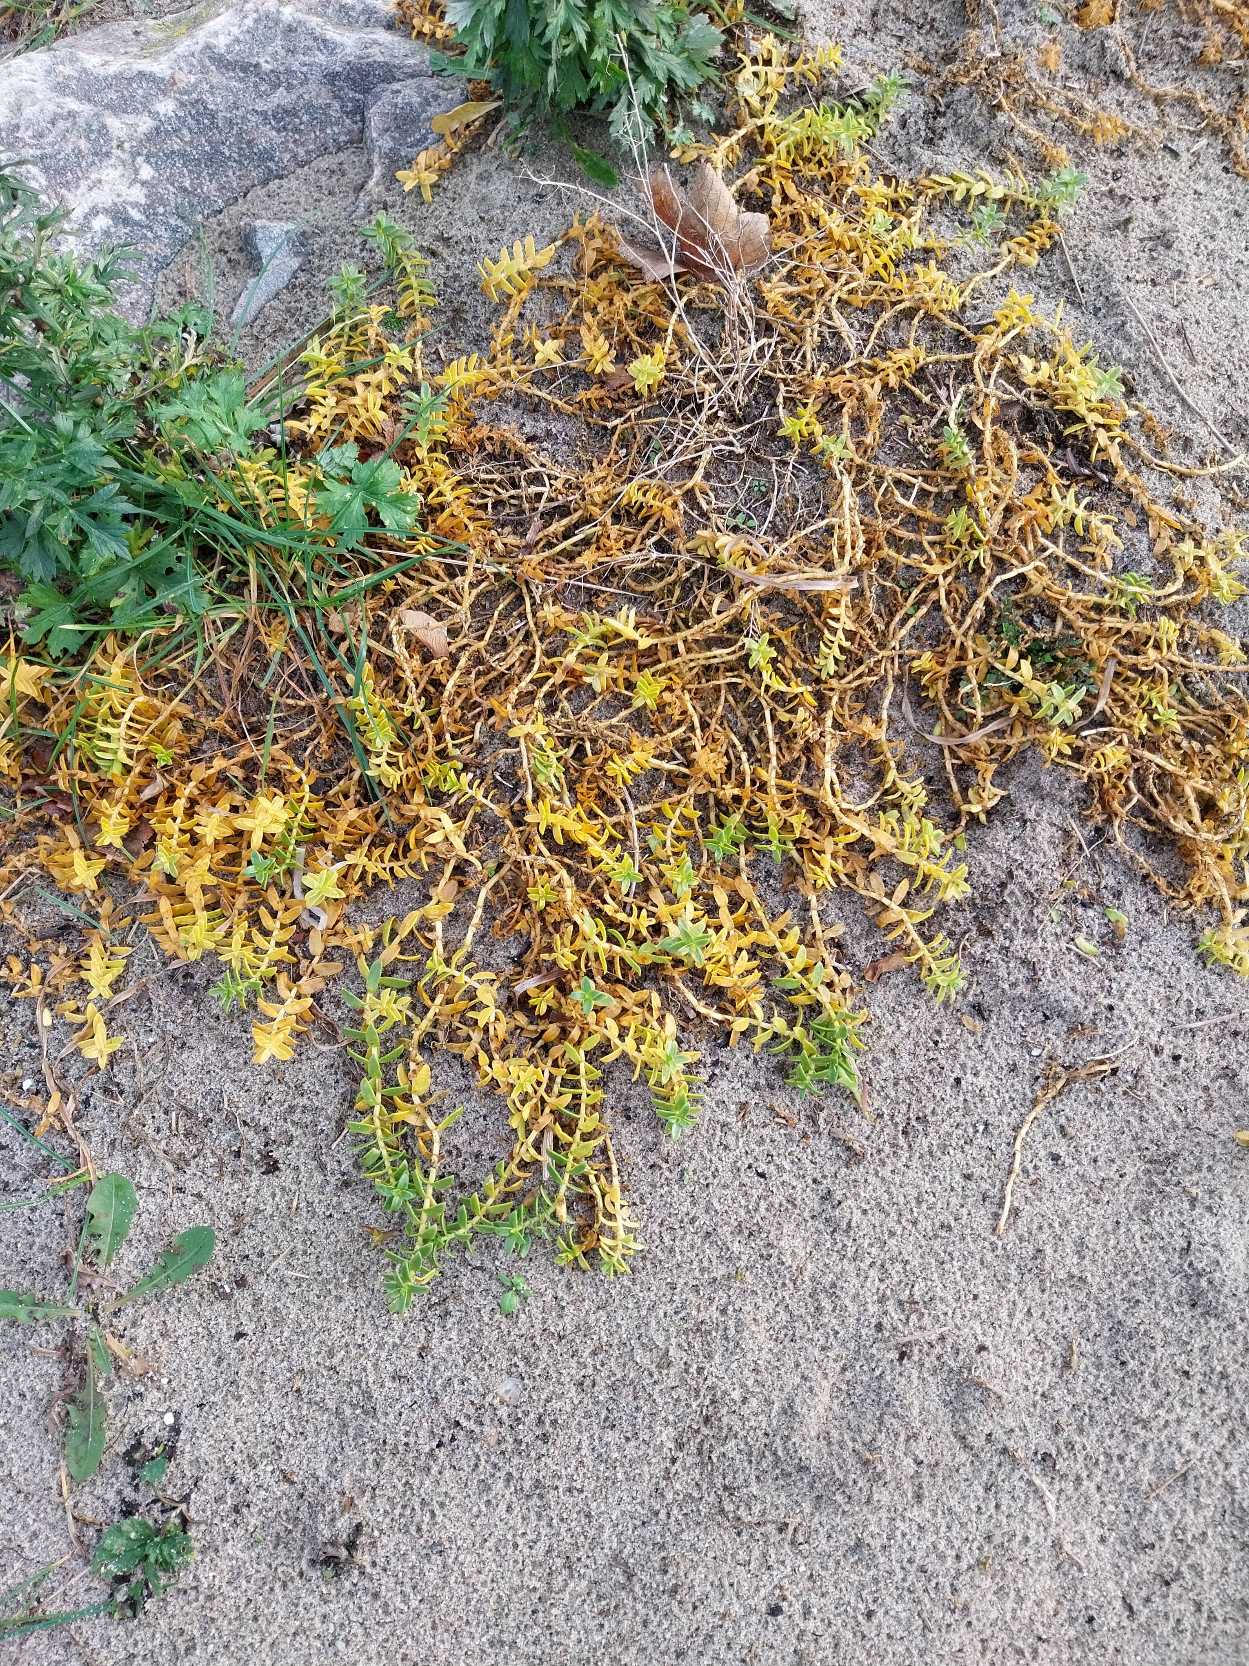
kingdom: Plantae
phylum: Tracheophyta
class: Magnoliopsida
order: Caryophyllales
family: Caryophyllaceae
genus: Honckenya
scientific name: Honckenya peploides
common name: Strandarve
